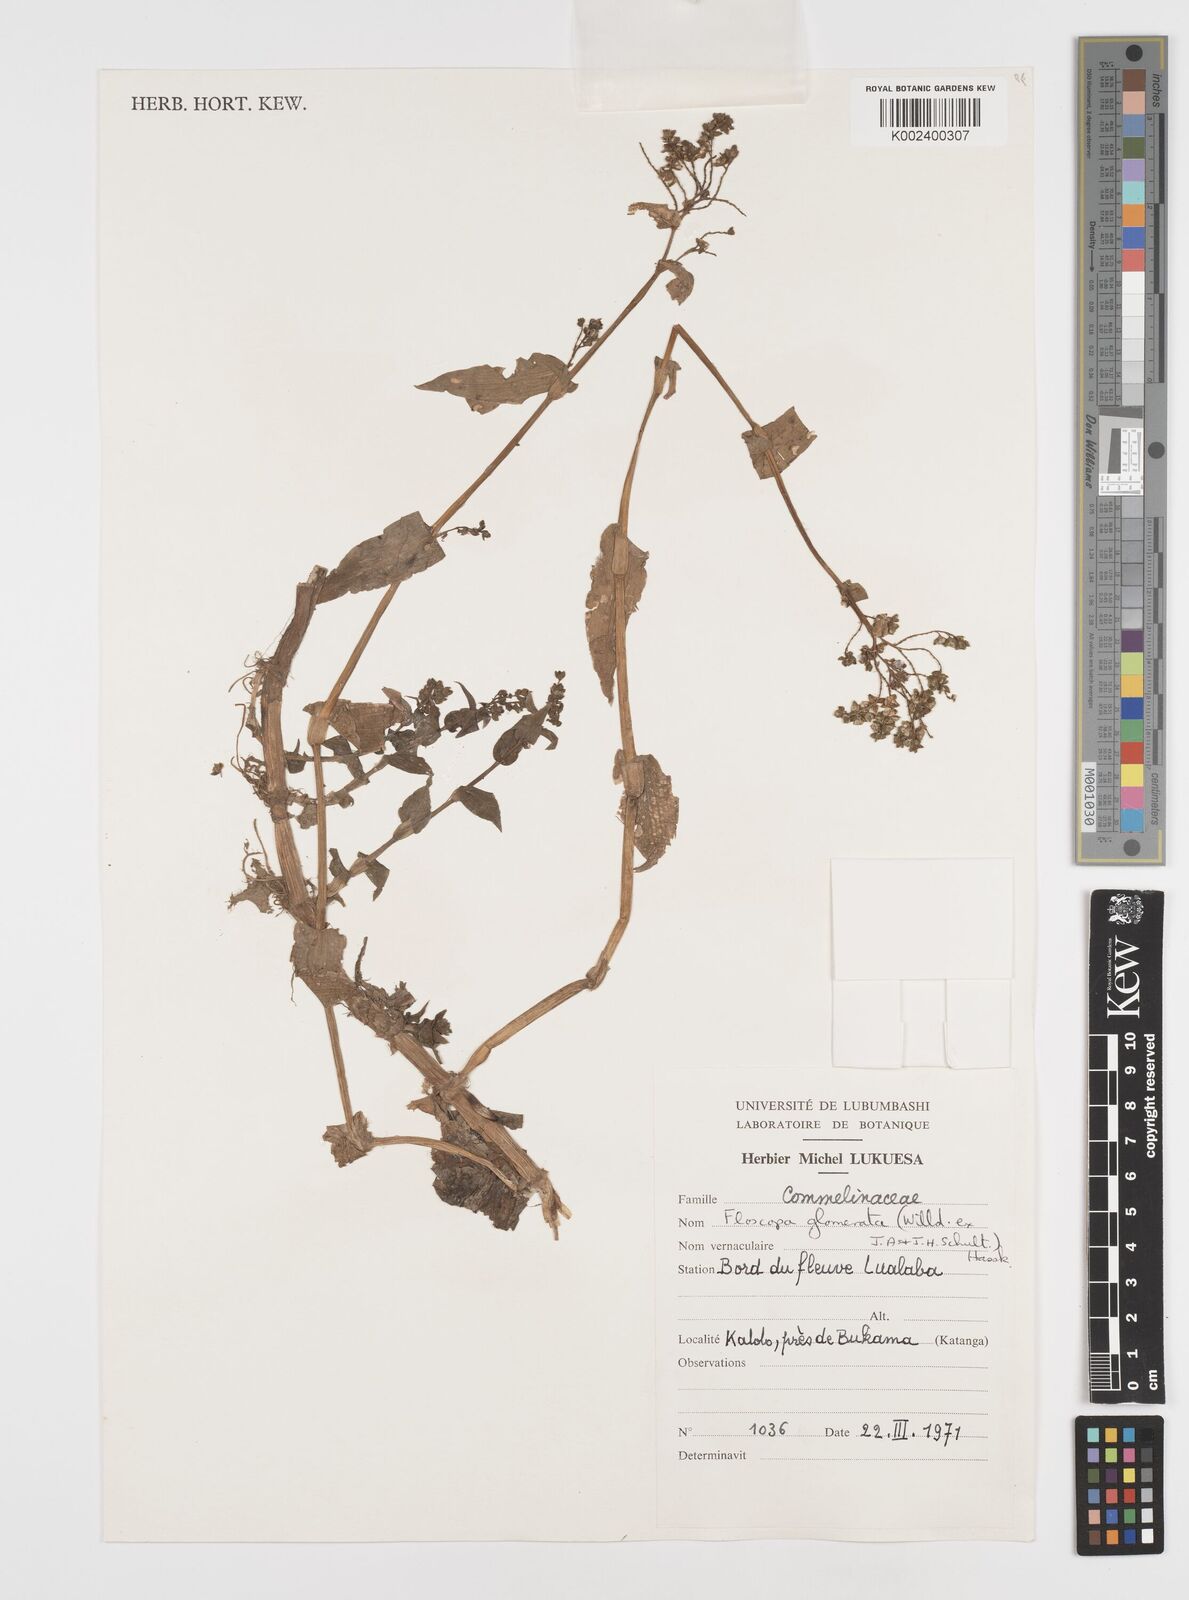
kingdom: Plantae
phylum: Tracheophyta
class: Liliopsida
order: Commelinales
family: Commelinaceae
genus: Floscopa
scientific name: Floscopa glomerata
